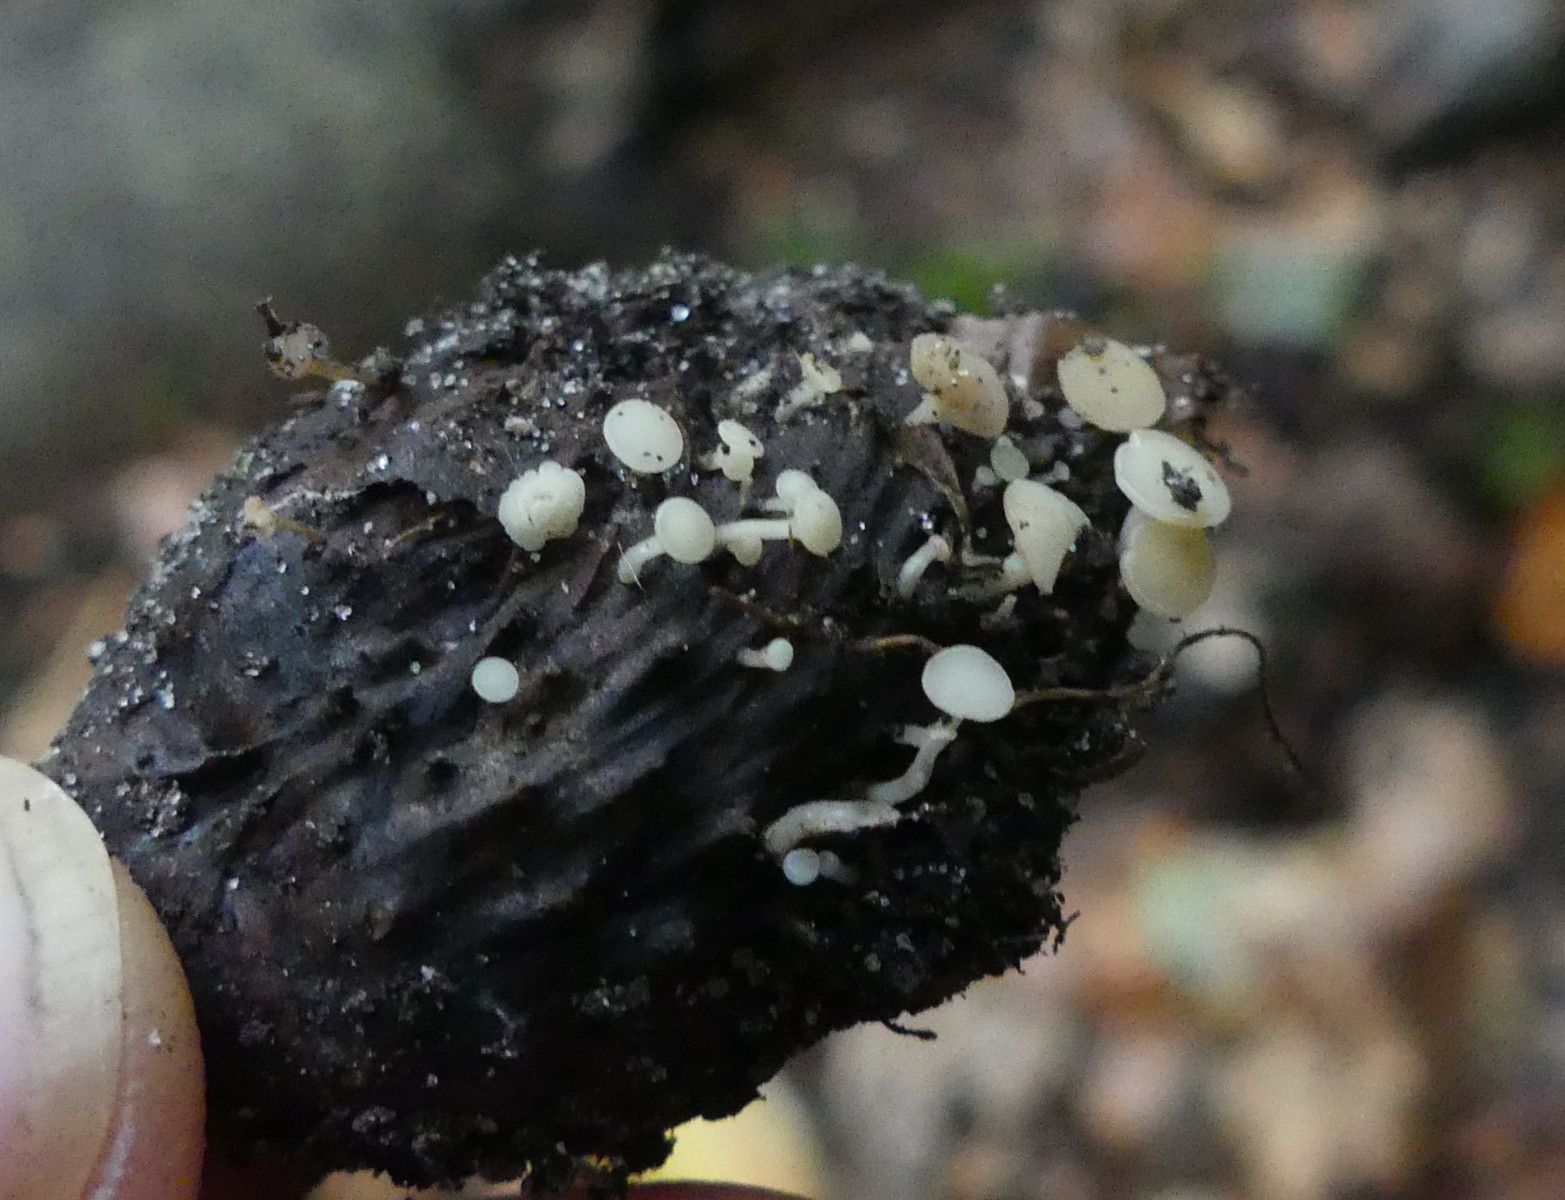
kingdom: Fungi
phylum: Ascomycota
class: Leotiomycetes
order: Helotiales
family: Helotiaceae
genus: Hymenoscyphus
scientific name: Hymenoscyphus fagineus
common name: vellugtende stilkskive
